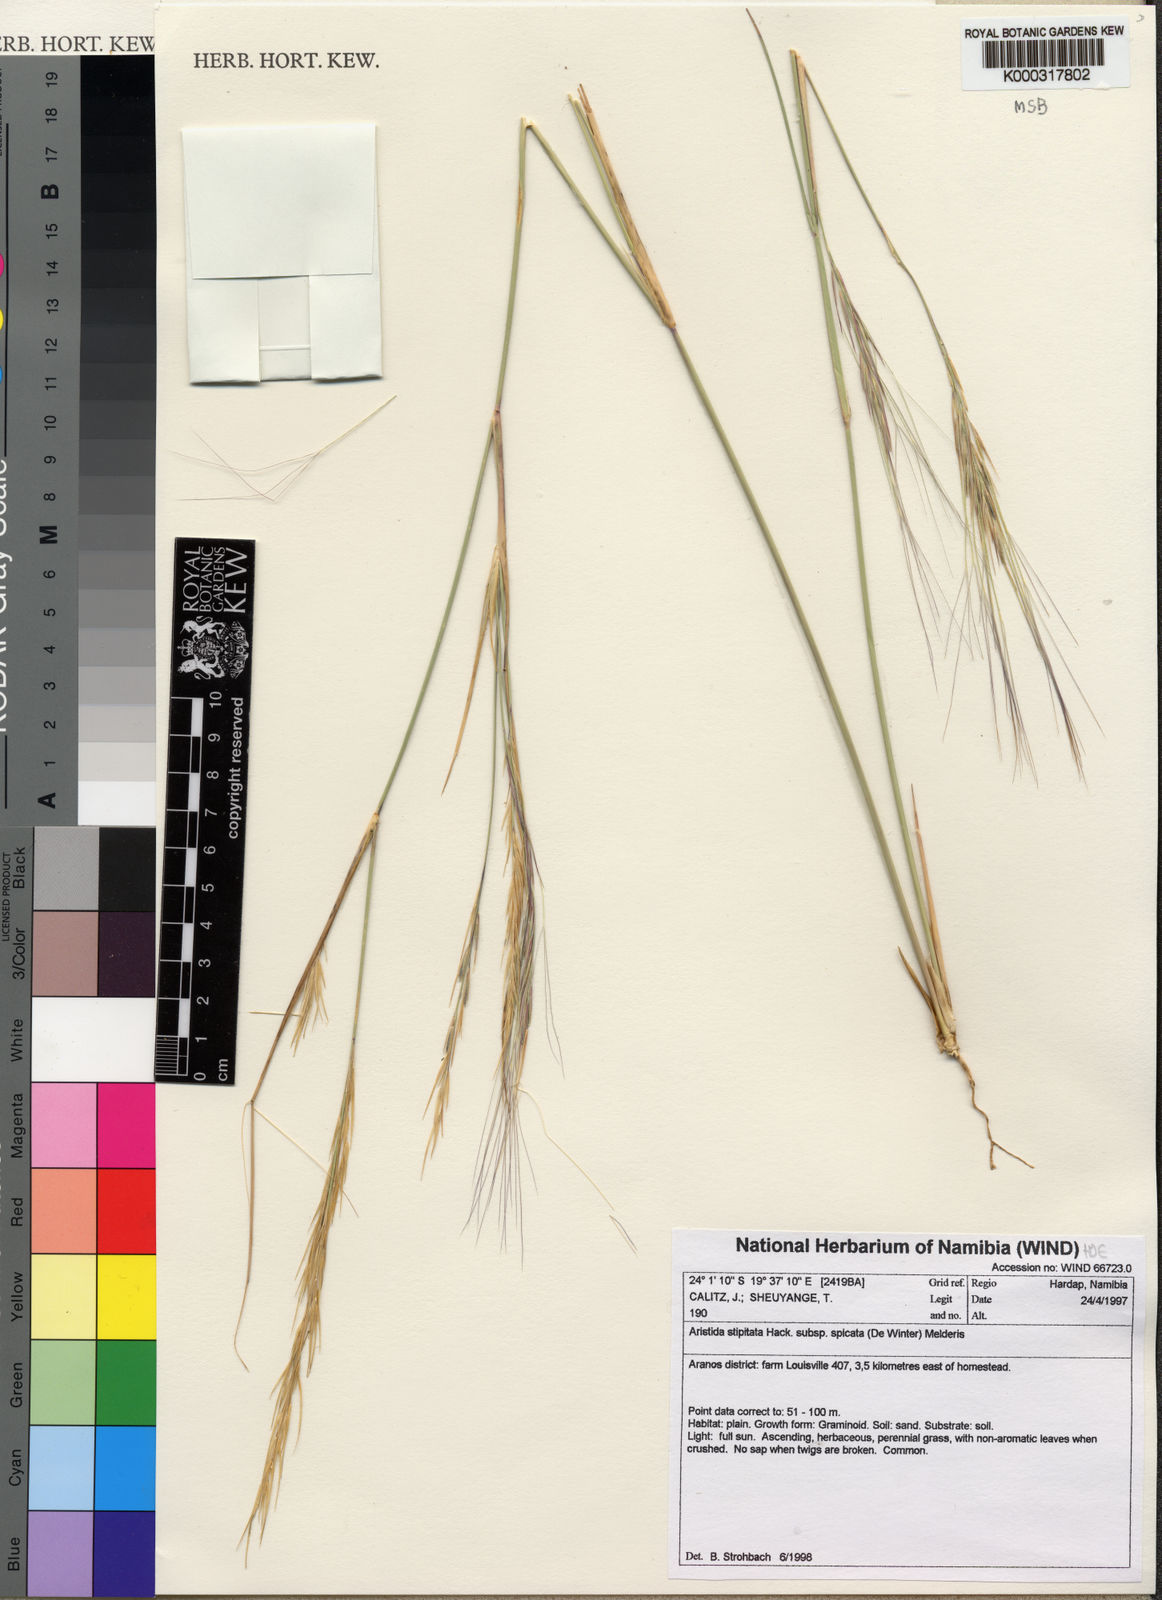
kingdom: Plantae
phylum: Tracheophyta
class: Liliopsida
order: Poales
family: Poaceae
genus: Aristida
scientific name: Aristida stipitata
